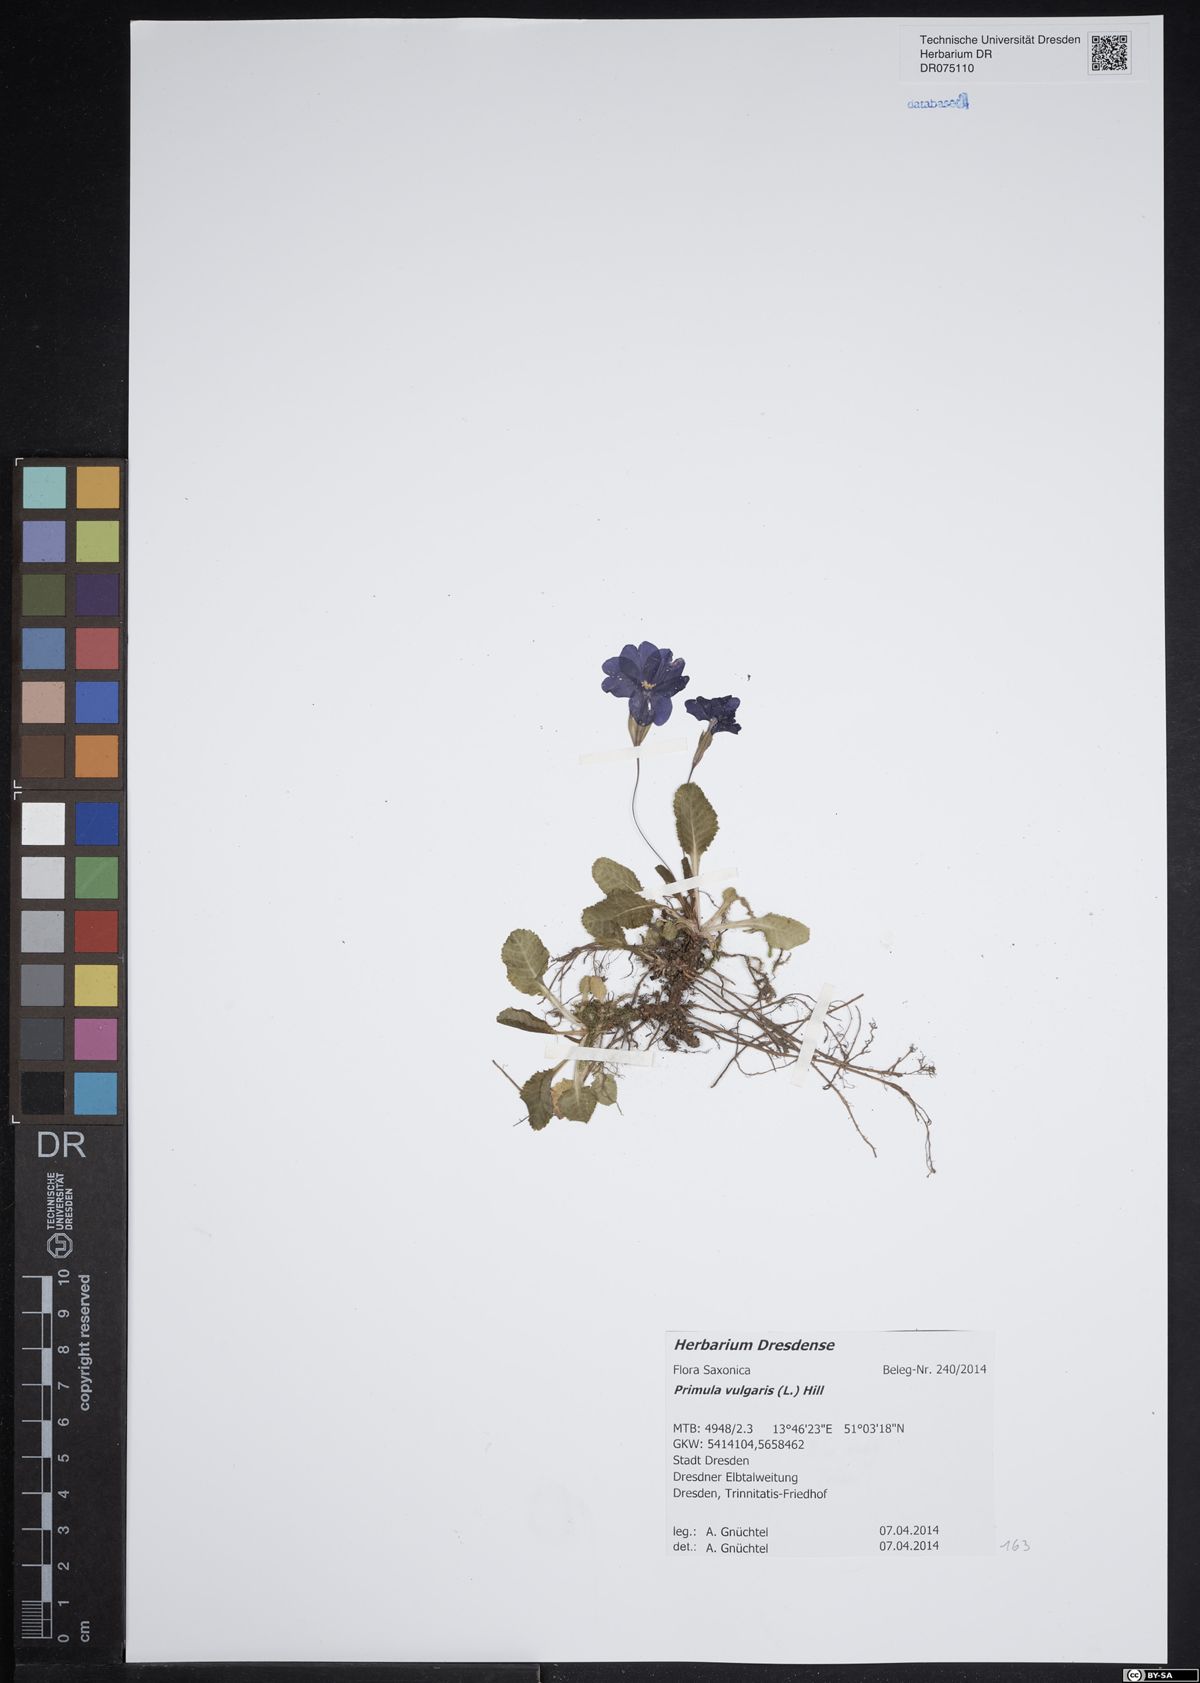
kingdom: Plantae
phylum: Tracheophyta
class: Magnoliopsida
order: Ericales
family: Primulaceae
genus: Primula
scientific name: Primula vulgaris
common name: Primrose
